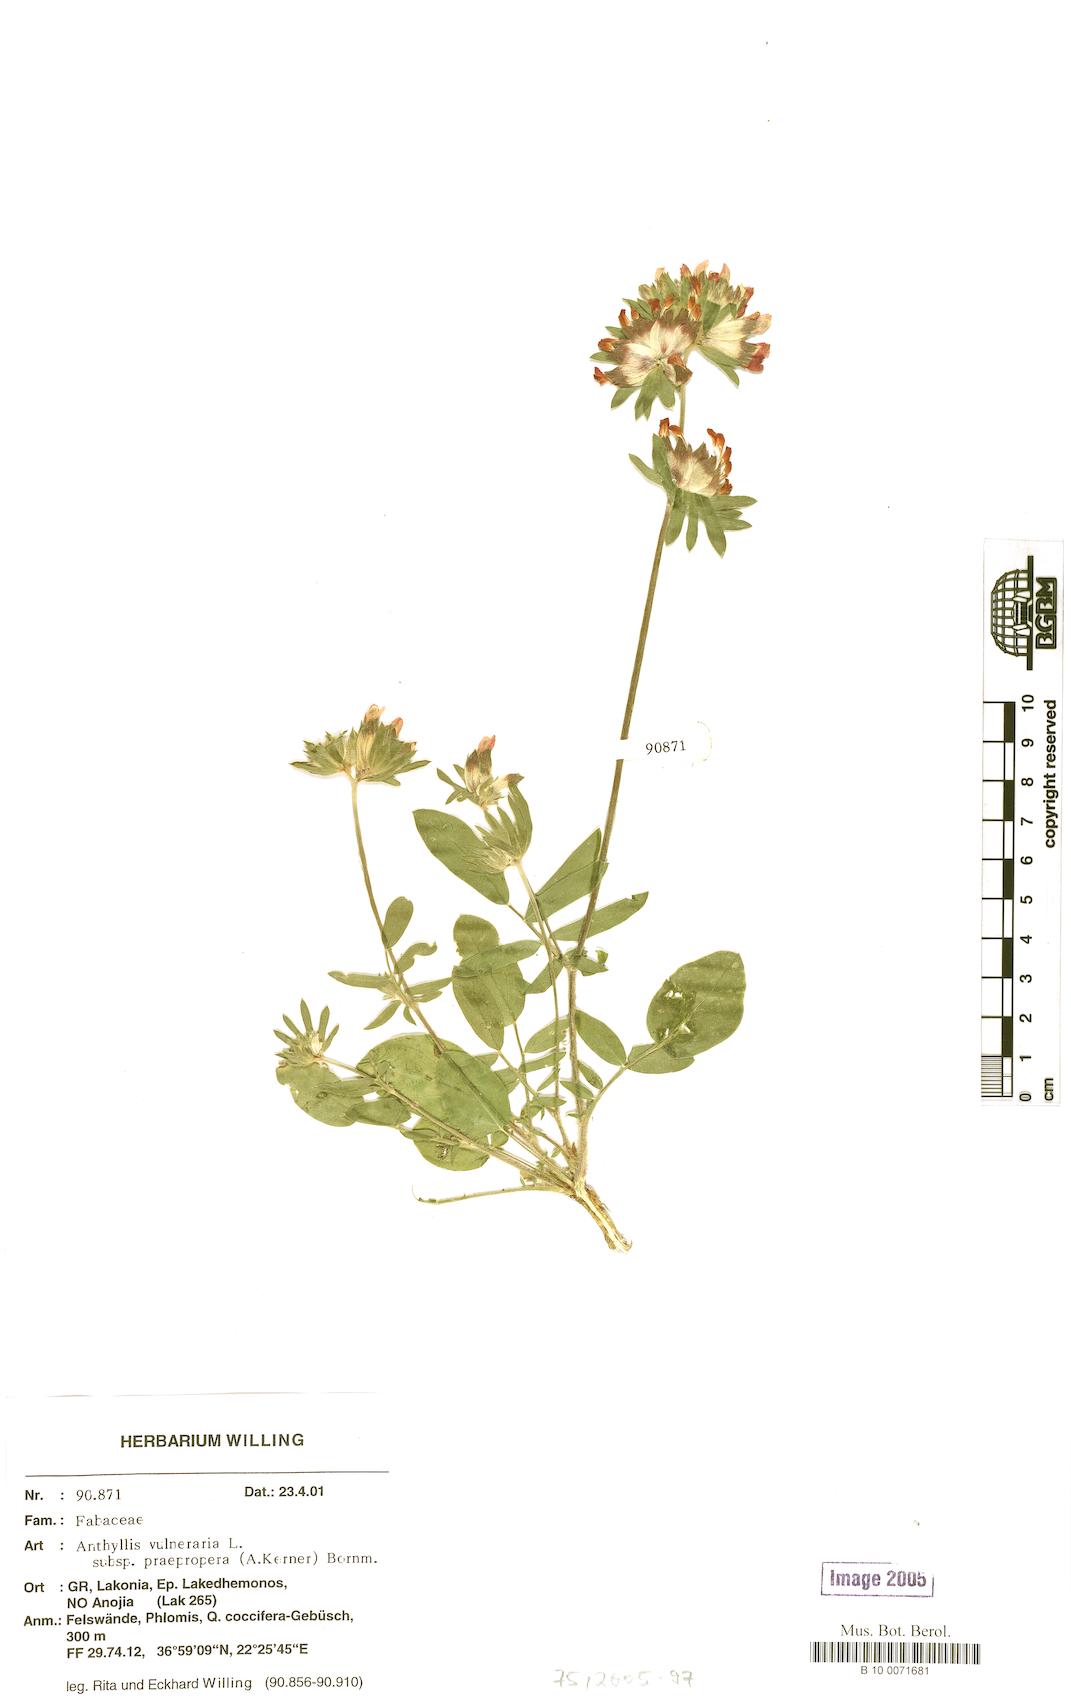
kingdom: Plantae
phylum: Tracheophyta
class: Magnoliopsida
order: Fabales
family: Fabaceae
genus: Anthyllis
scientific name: Anthyllis vulneraria
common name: Kidney vetch
